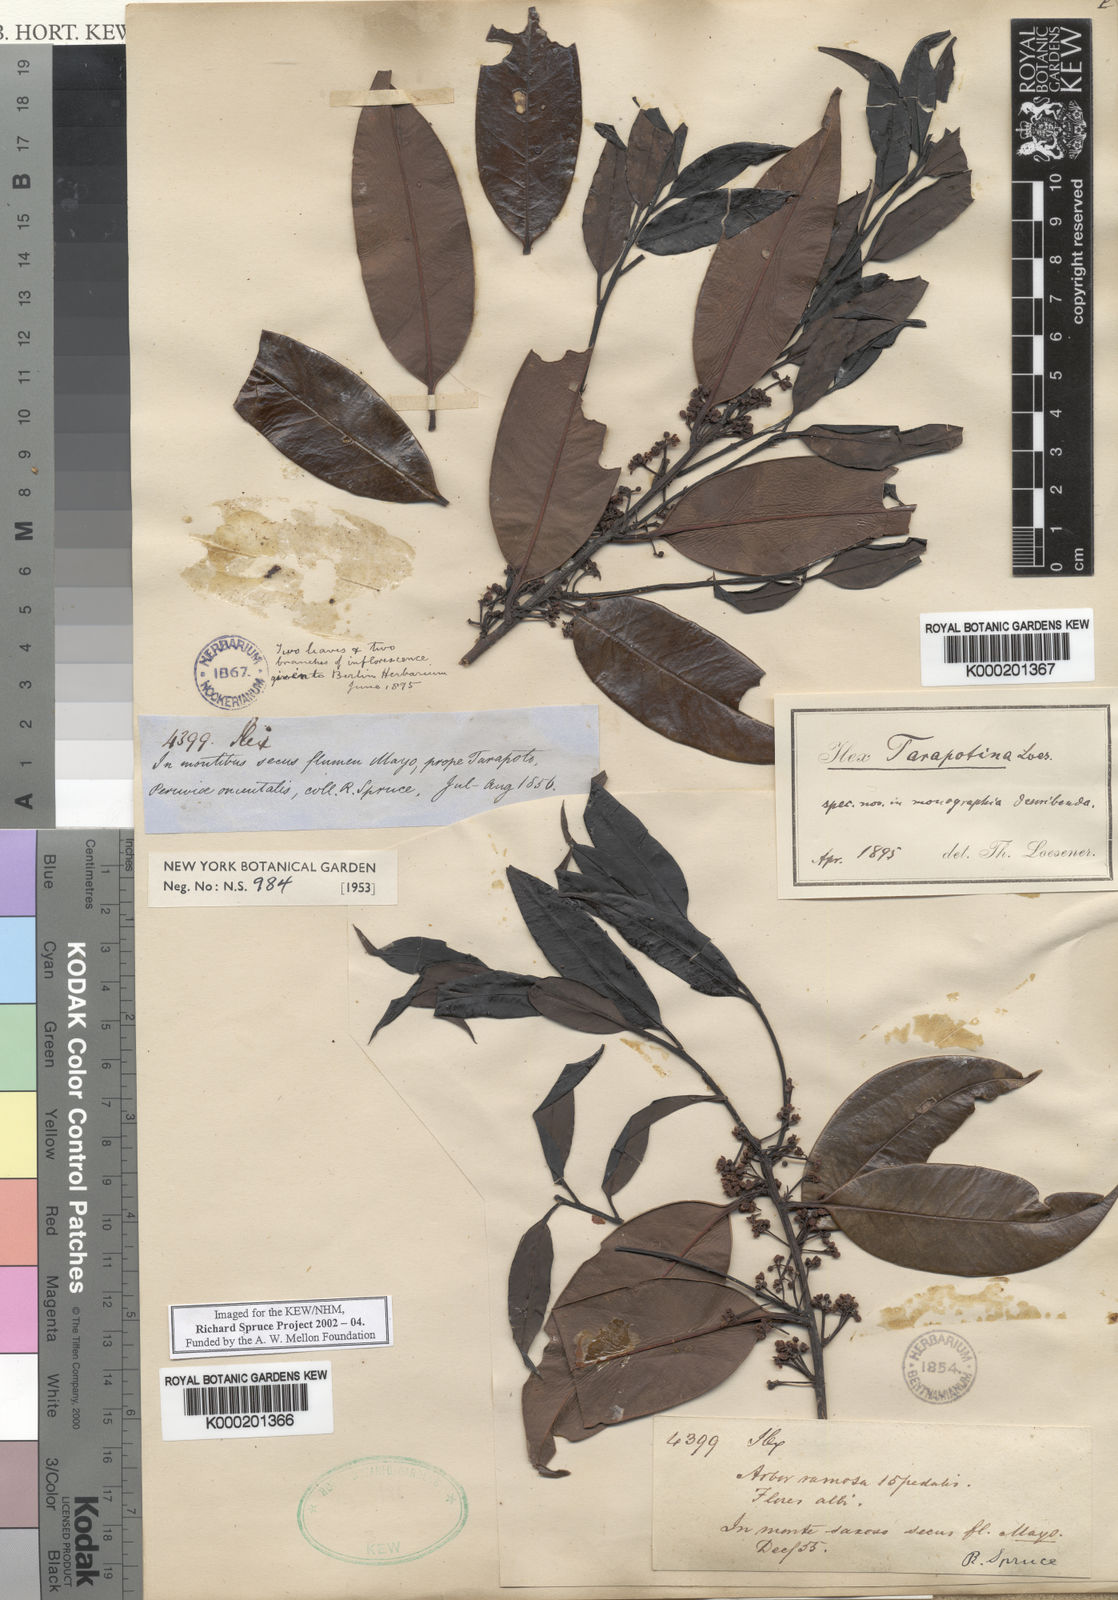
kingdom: Plantae
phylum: Tracheophyta
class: Magnoliopsida
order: Aquifoliales
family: Aquifoliaceae
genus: Ilex
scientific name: Ilex tarapotina
